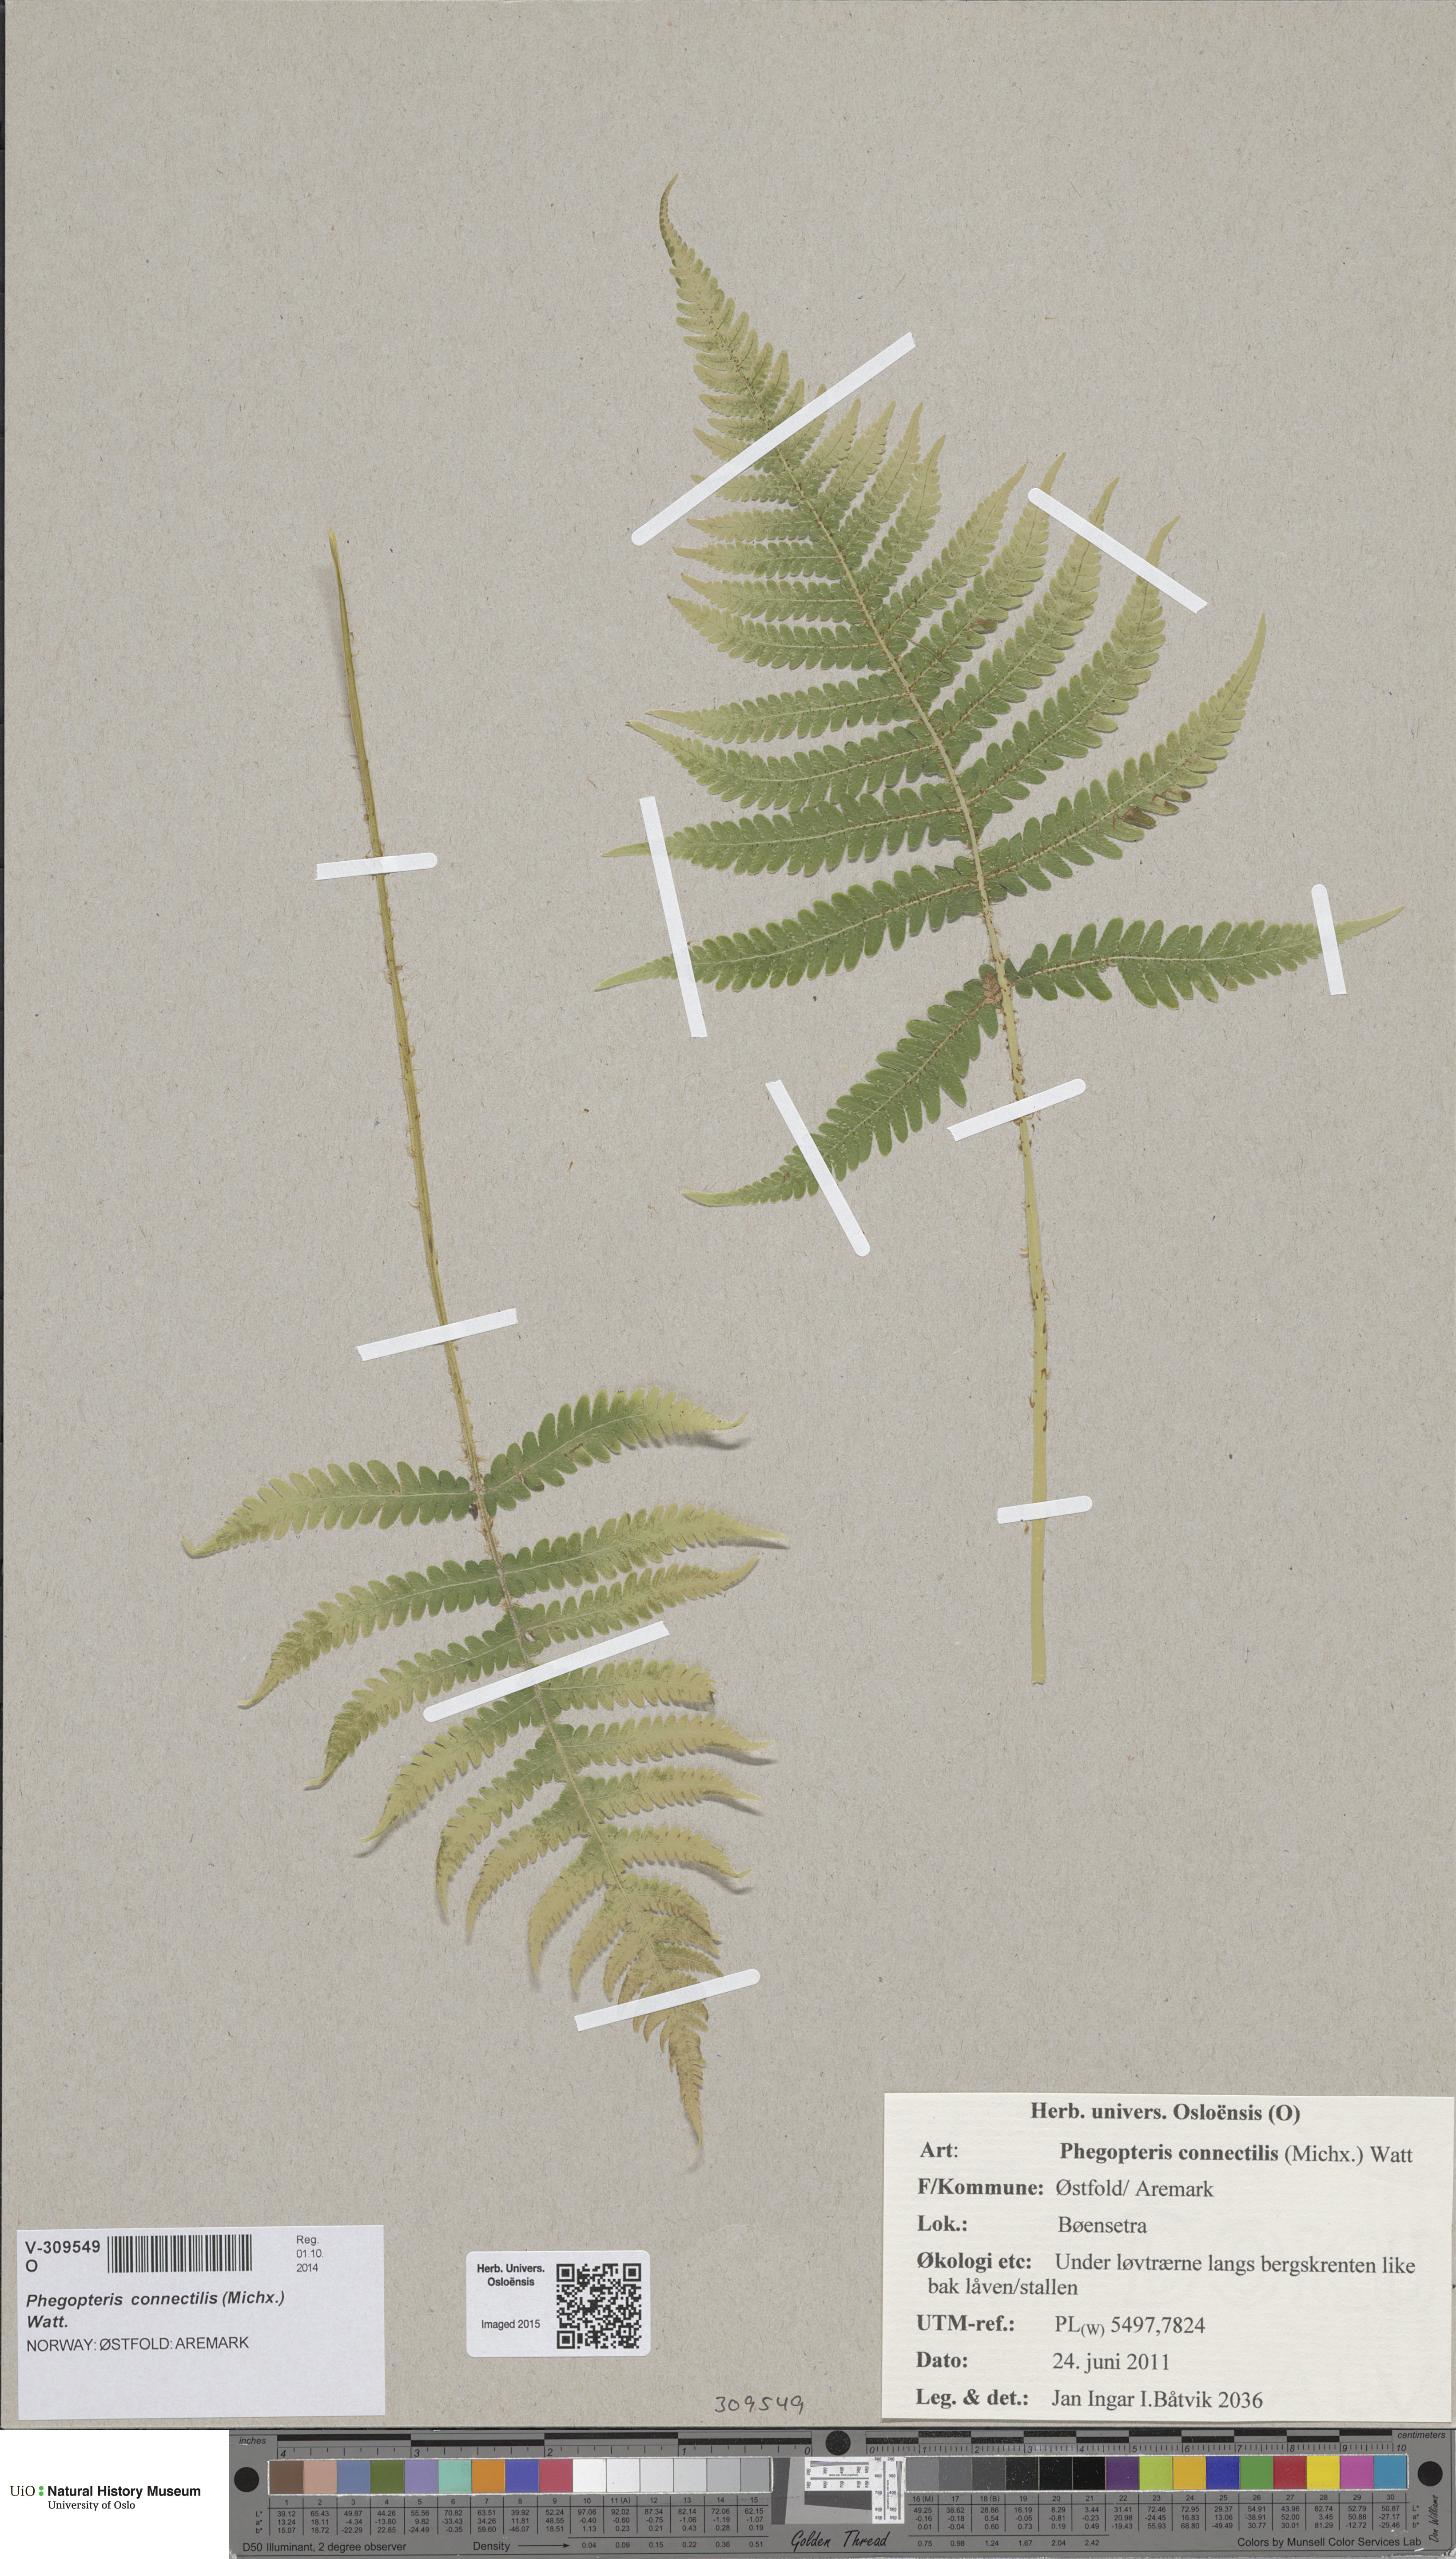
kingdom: Plantae
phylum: Tracheophyta
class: Polypodiopsida
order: Polypodiales
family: Thelypteridaceae
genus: Phegopteris
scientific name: Phegopteris connectilis
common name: Beech fern
